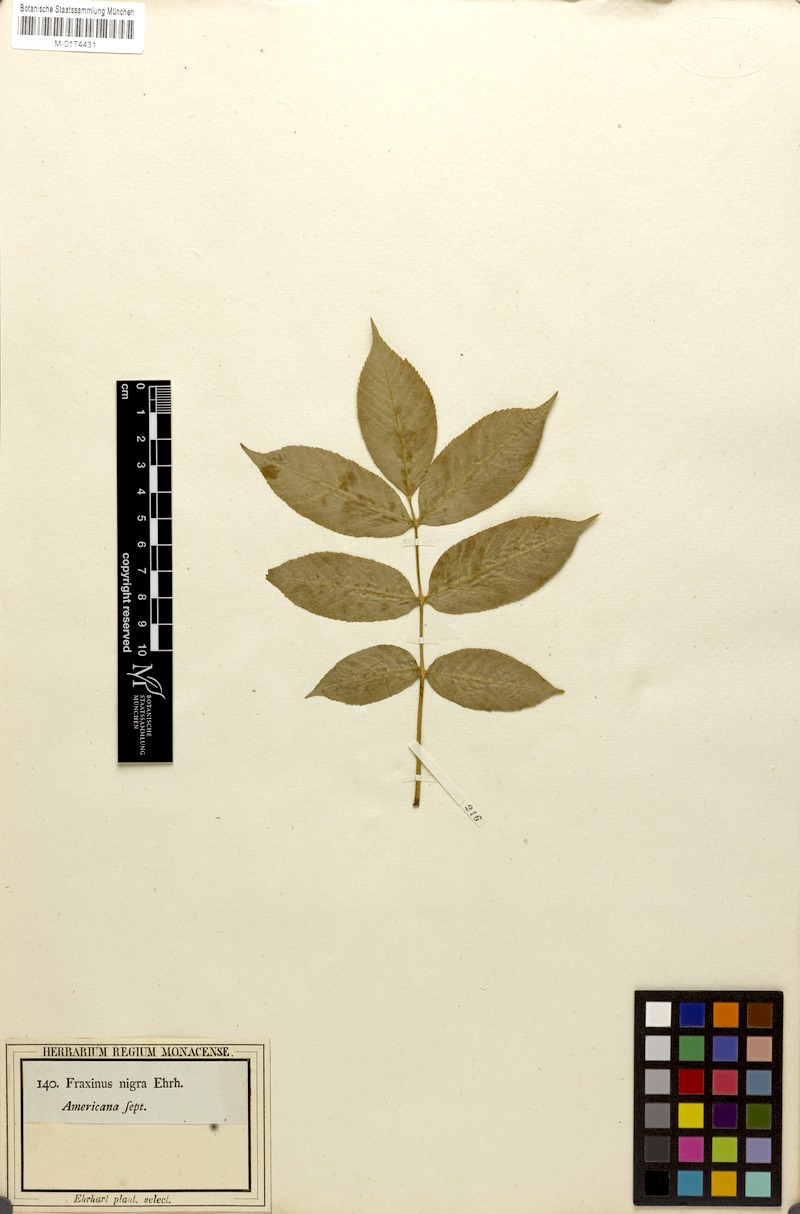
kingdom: Plantae
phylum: Tracheophyta
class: Magnoliopsida
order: Lamiales
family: Oleaceae
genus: Fraxinus
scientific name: Fraxinus nigra
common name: Black ash
